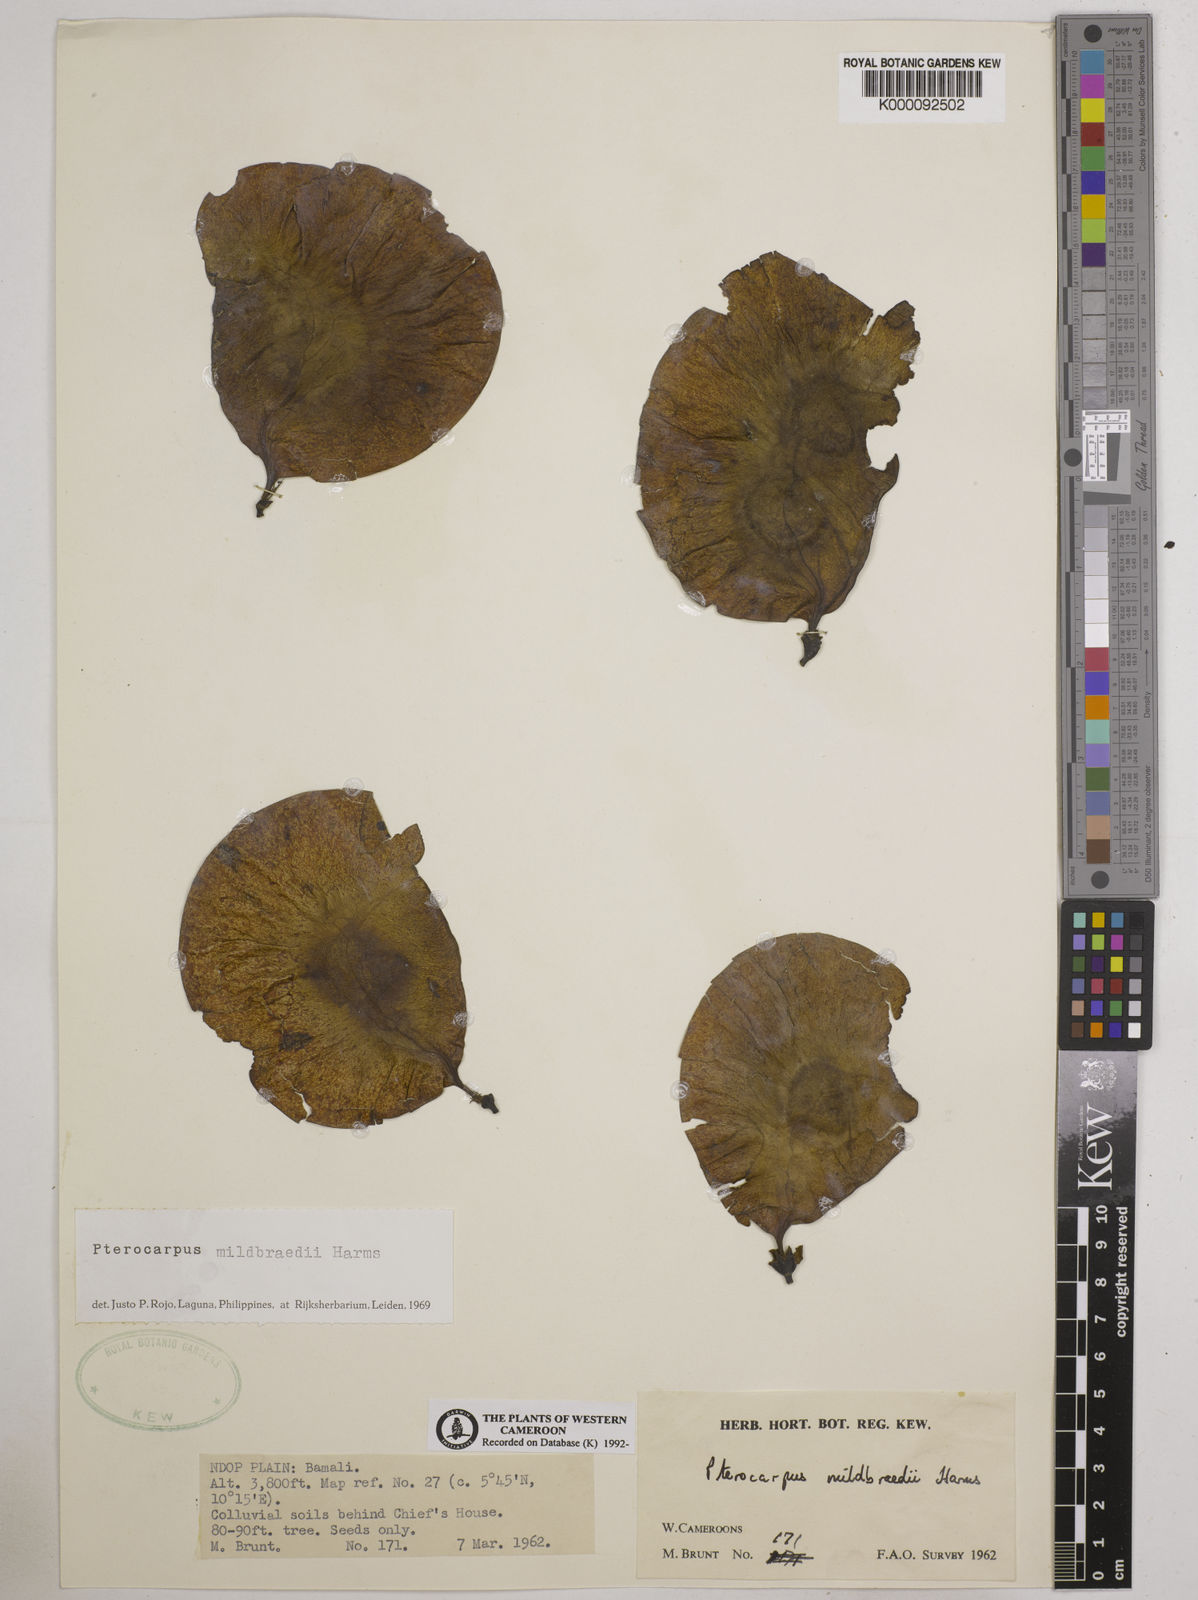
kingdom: Plantae
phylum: Tracheophyta
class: Magnoliopsida
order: Fabales
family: Fabaceae
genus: Pterocarpus
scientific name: Pterocarpus mildbraedii
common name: White padouk
